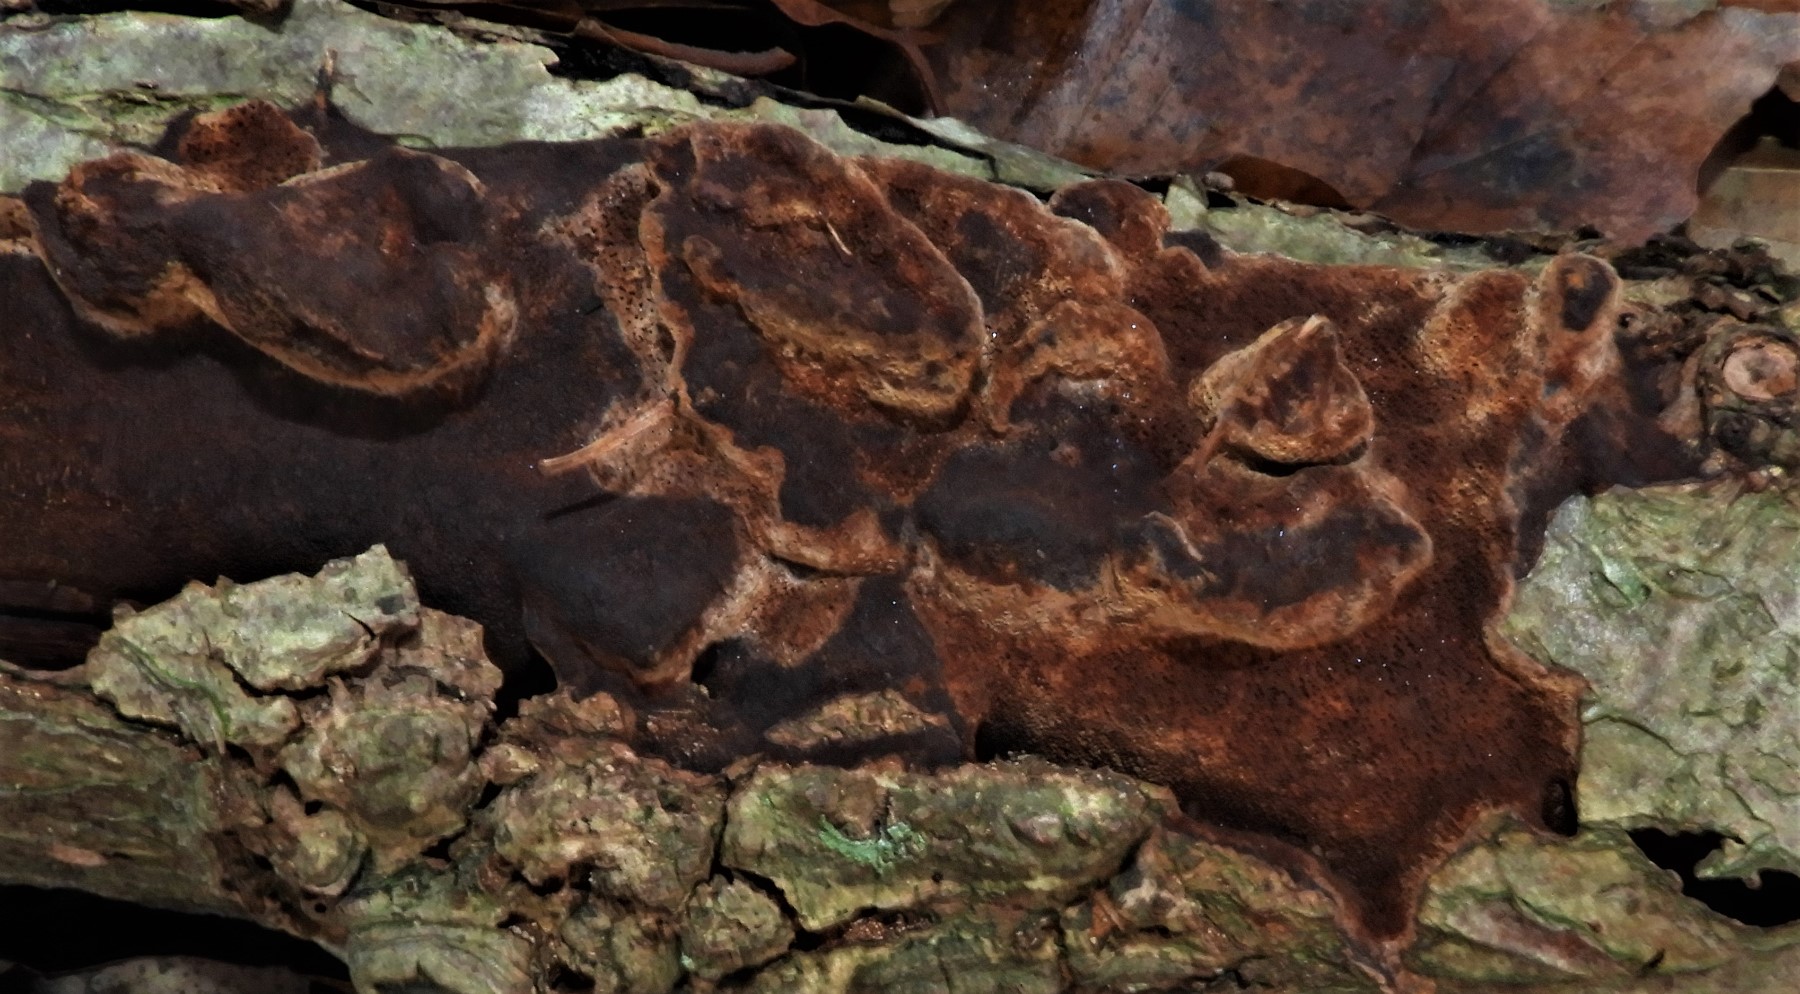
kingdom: Fungi
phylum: Basidiomycota
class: Agaricomycetes
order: Hymenochaetales
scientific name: Hymenochaetales
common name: børstesvampordenen
